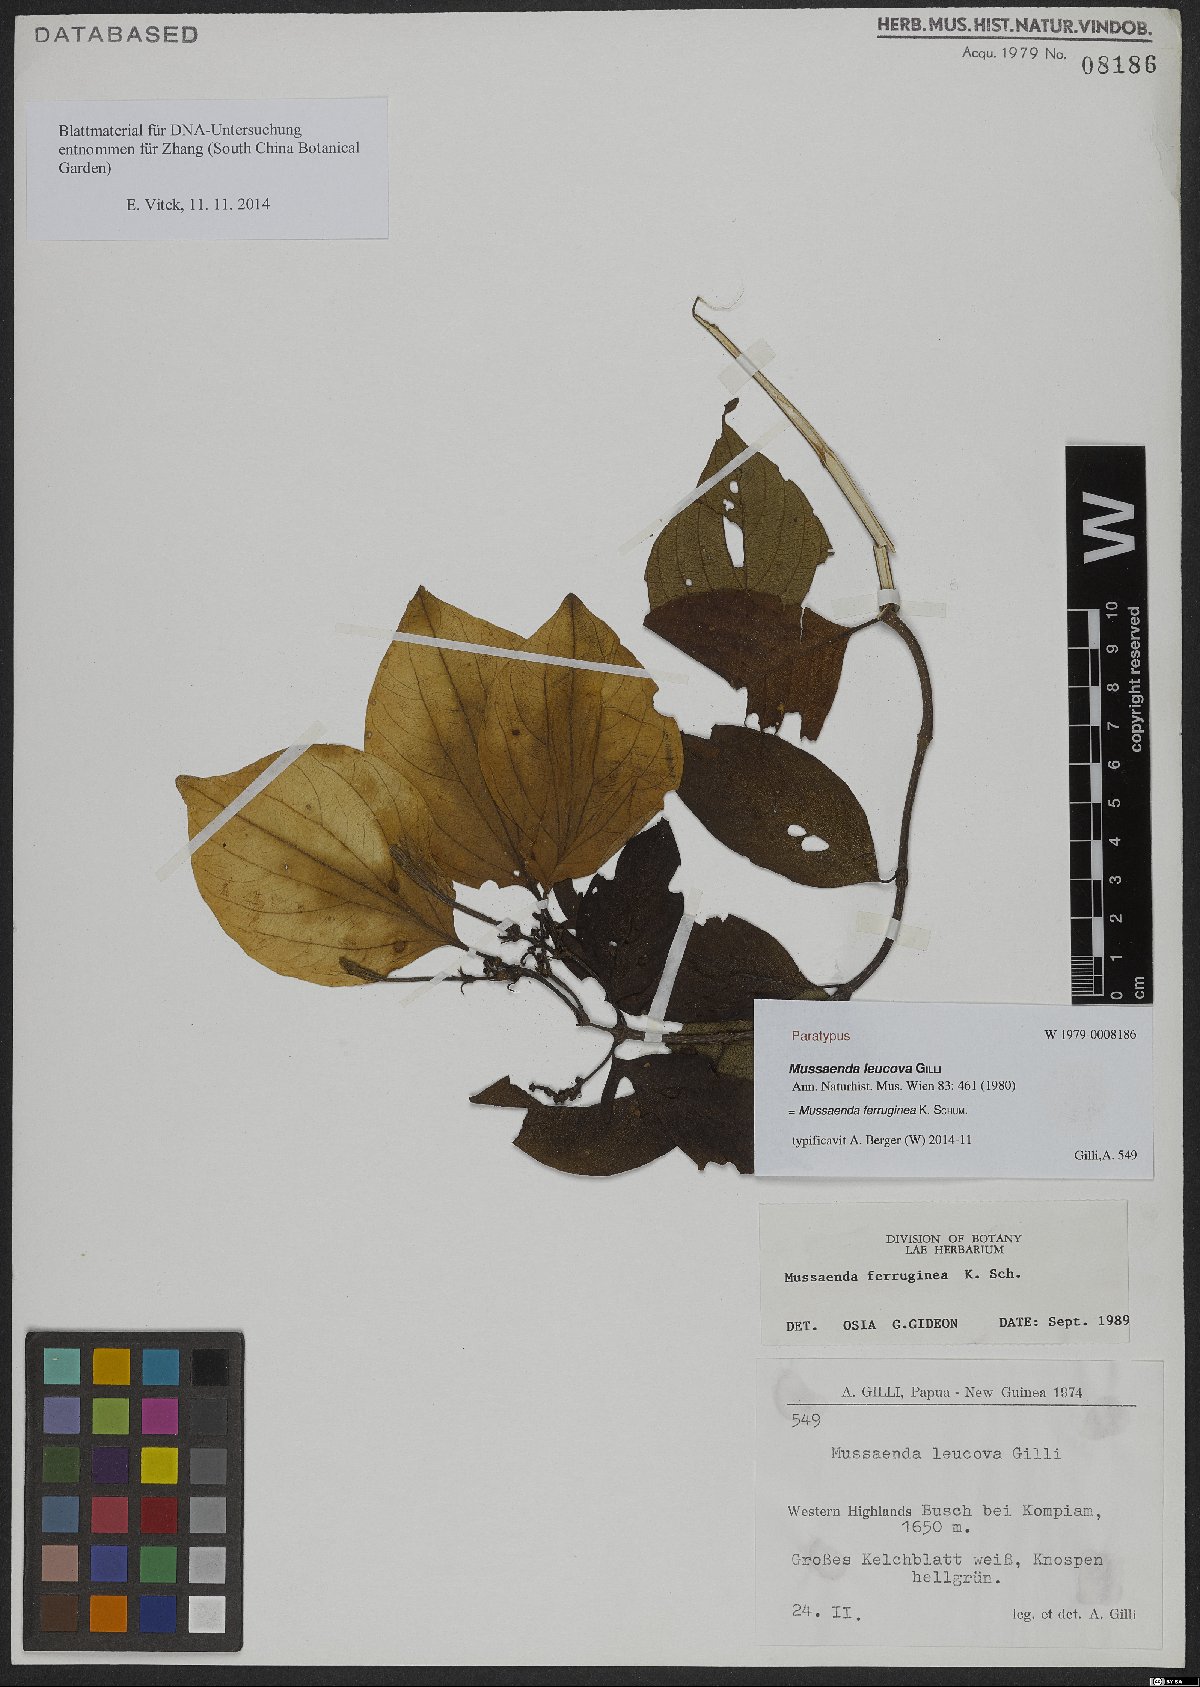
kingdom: Plantae
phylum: Tracheophyta
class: Magnoliopsida
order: Gentianales
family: Rubiaceae
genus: Mussaenda
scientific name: Mussaenda ferruginea
